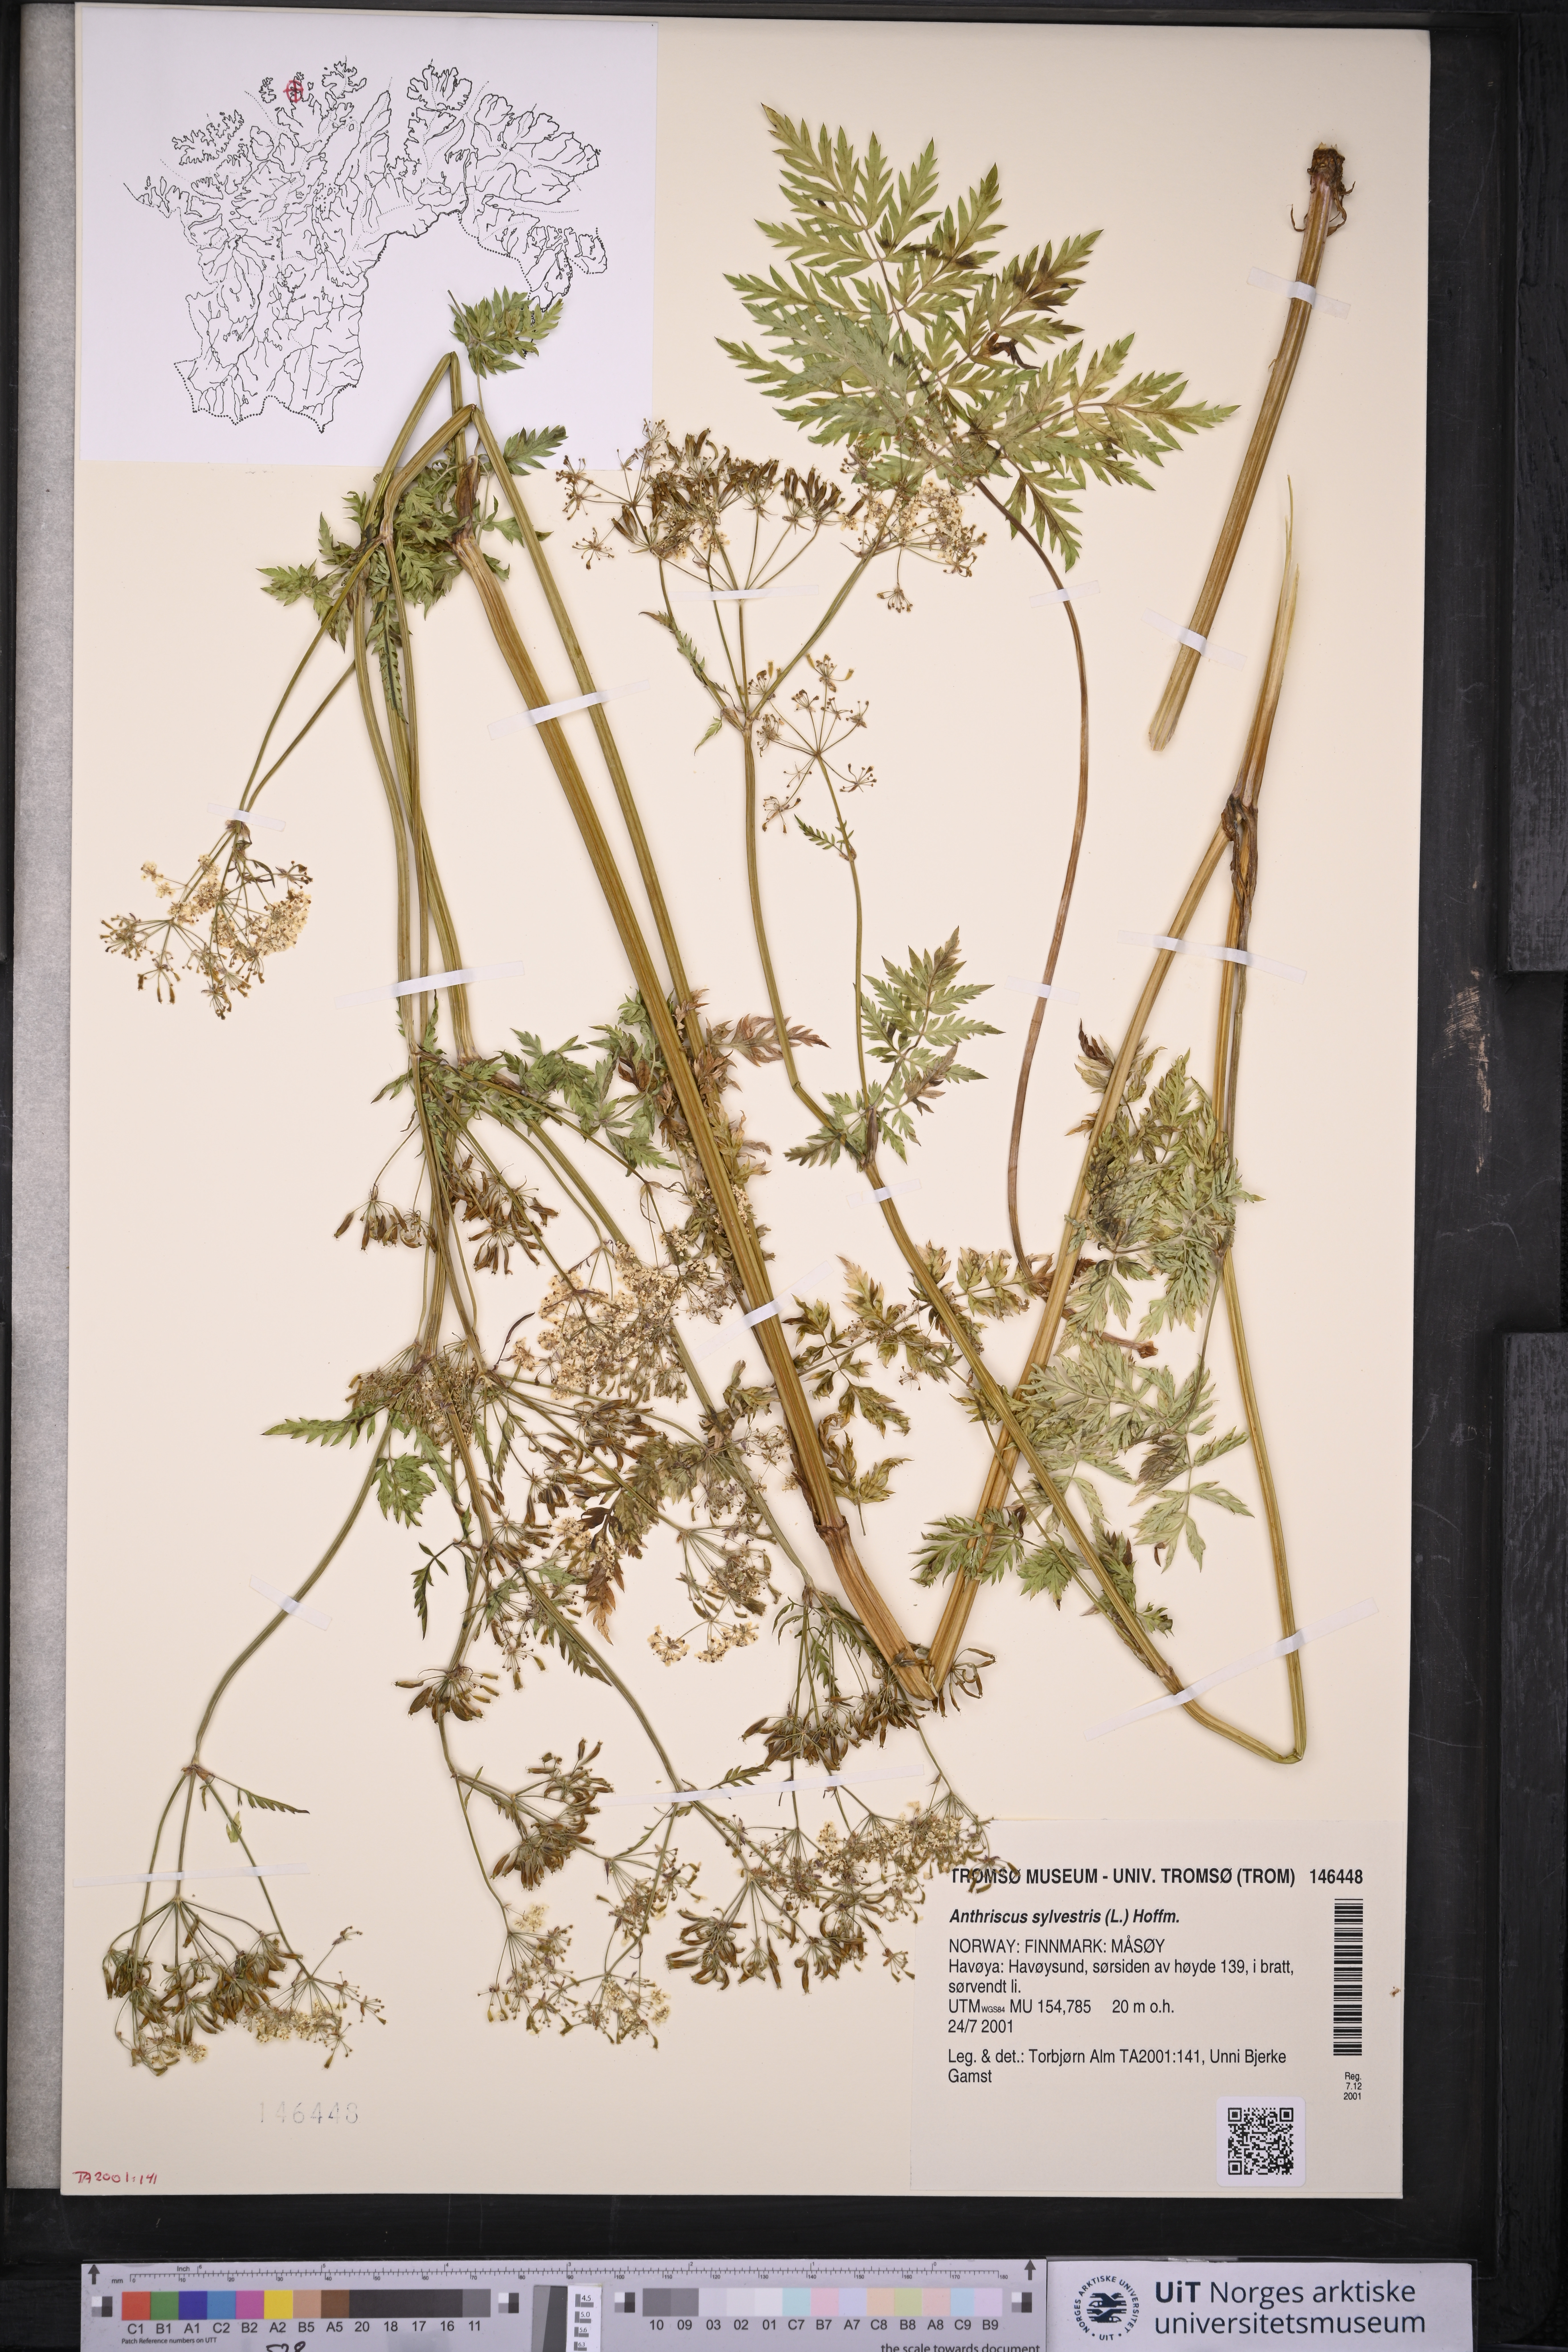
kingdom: Plantae
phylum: Tracheophyta
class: Magnoliopsida
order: Apiales
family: Apiaceae
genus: Anthriscus
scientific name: Anthriscus sylvestris
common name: Cow parsley
